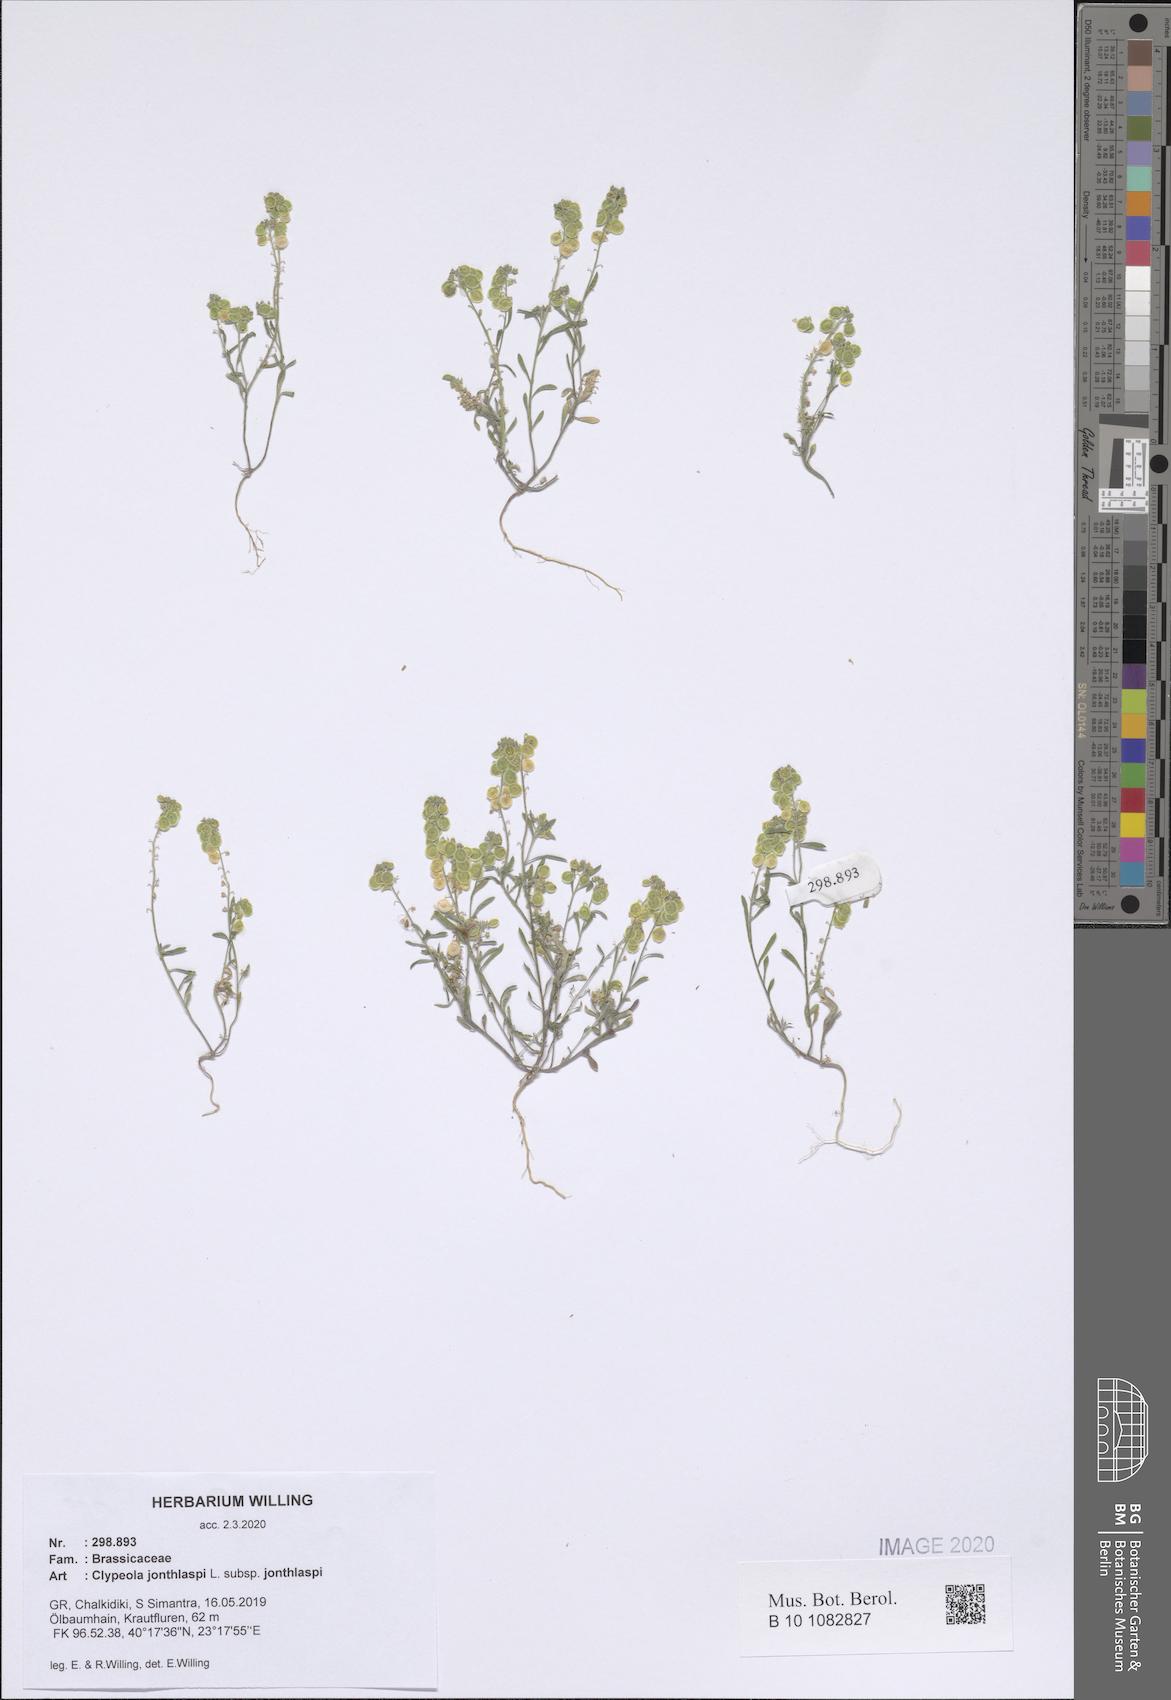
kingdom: Plantae
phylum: Tracheophyta
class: Magnoliopsida
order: Brassicales
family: Brassicaceae
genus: Clypeola
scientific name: Clypeola jonthlaspi
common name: Disk cress
